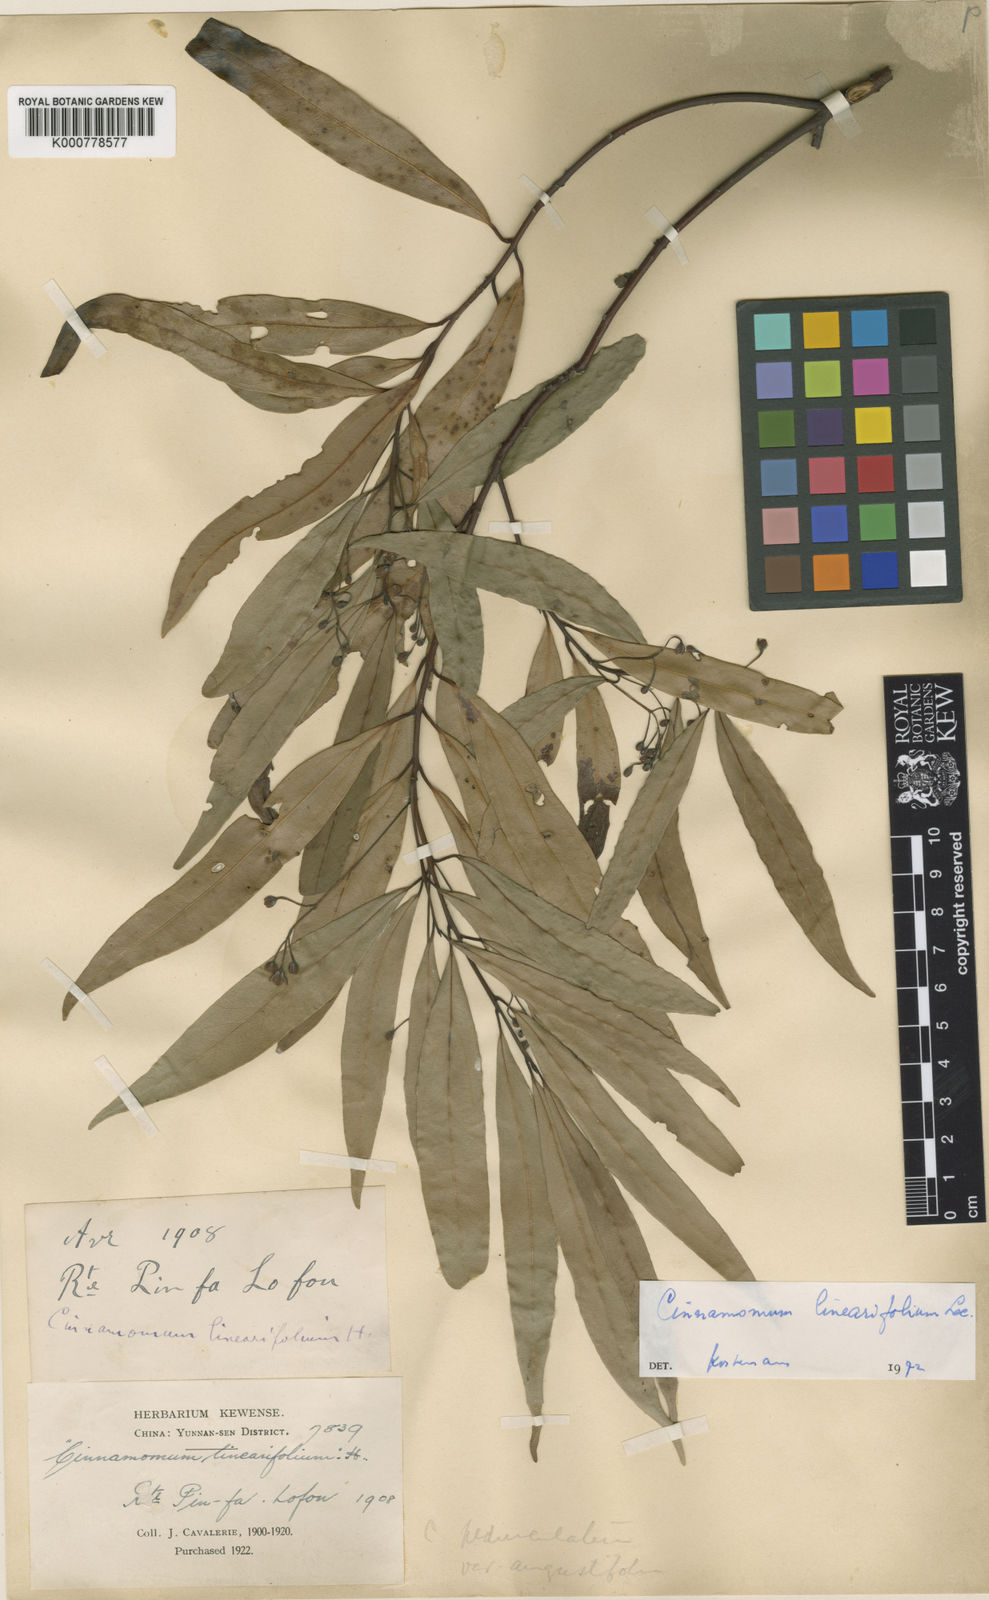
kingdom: Plantae
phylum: Tracheophyta
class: Magnoliopsida
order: Laurales
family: Lauraceae
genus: Cinnamomum
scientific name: Cinnamomum heyneanum
